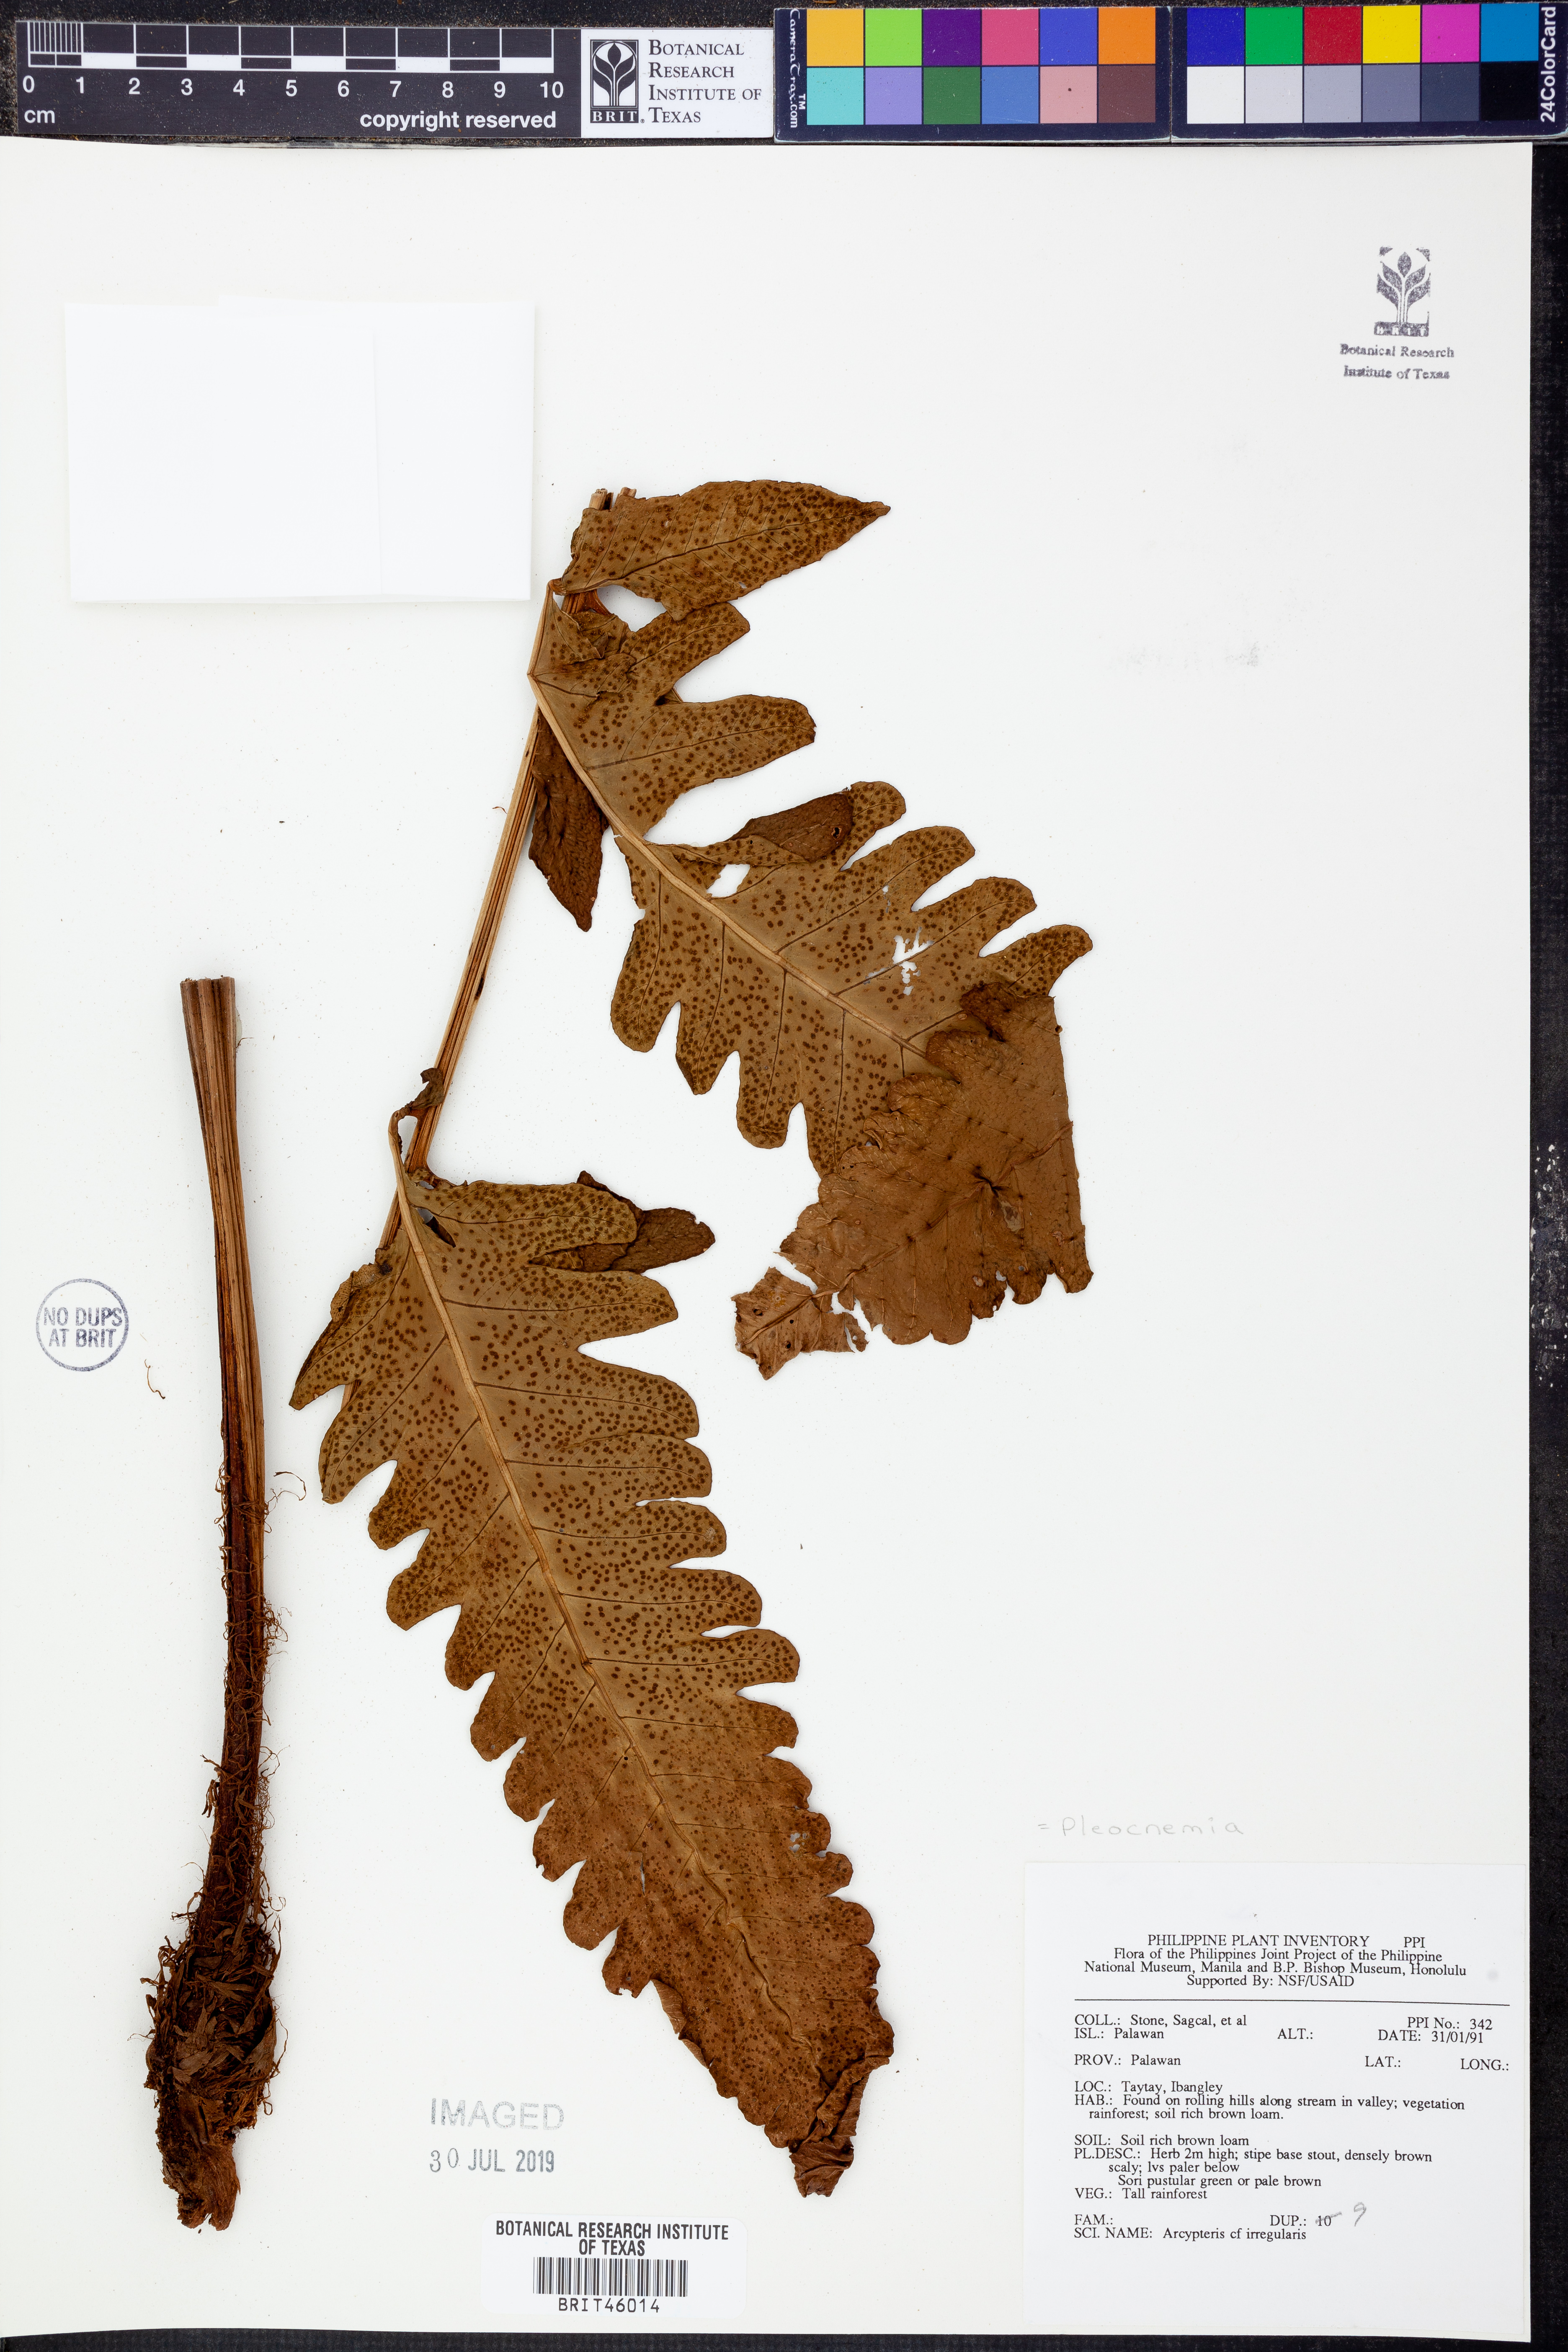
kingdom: Plantae
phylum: Tracheophyta
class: Polypodiopsida
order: Polypodiales
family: Dryopteridaceae
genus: Pleocnemia
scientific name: Pleocnemia irregularis
